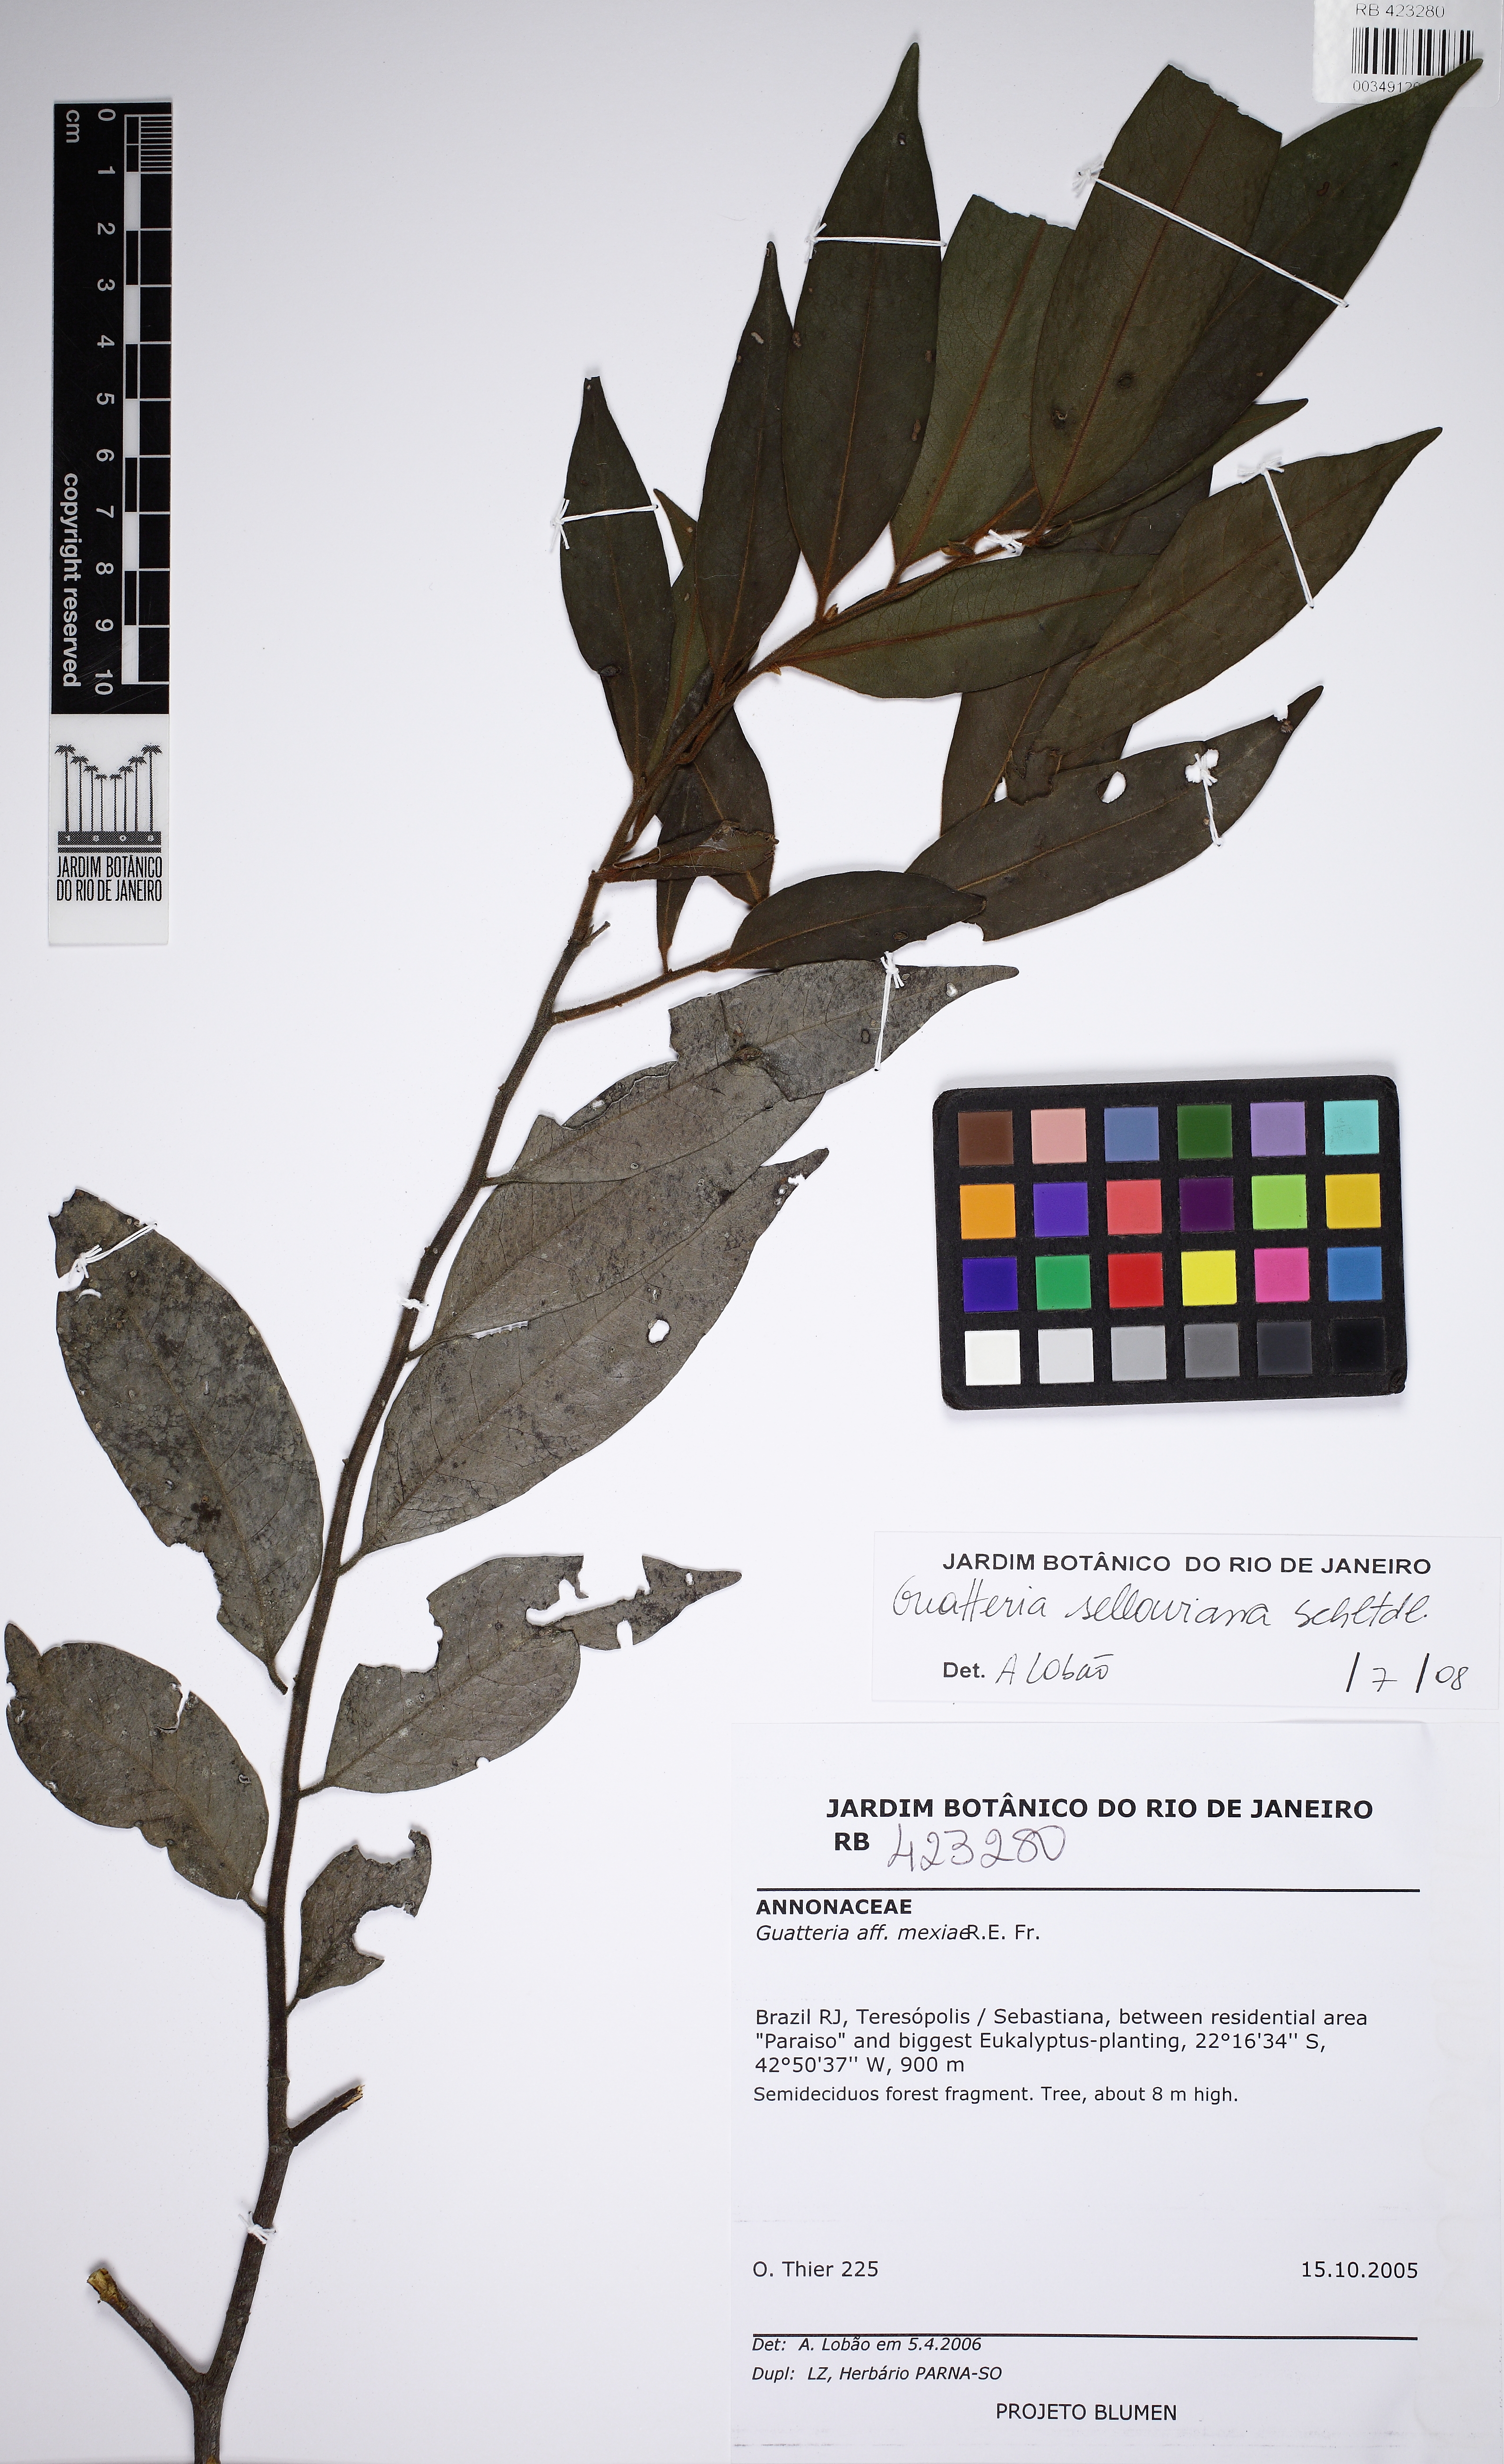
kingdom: Plantae
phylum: Tracheophyta
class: Magnoliopsida
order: Magnoliales
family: Annonaceae
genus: Guatteria
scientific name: Guatteria sellowiana
